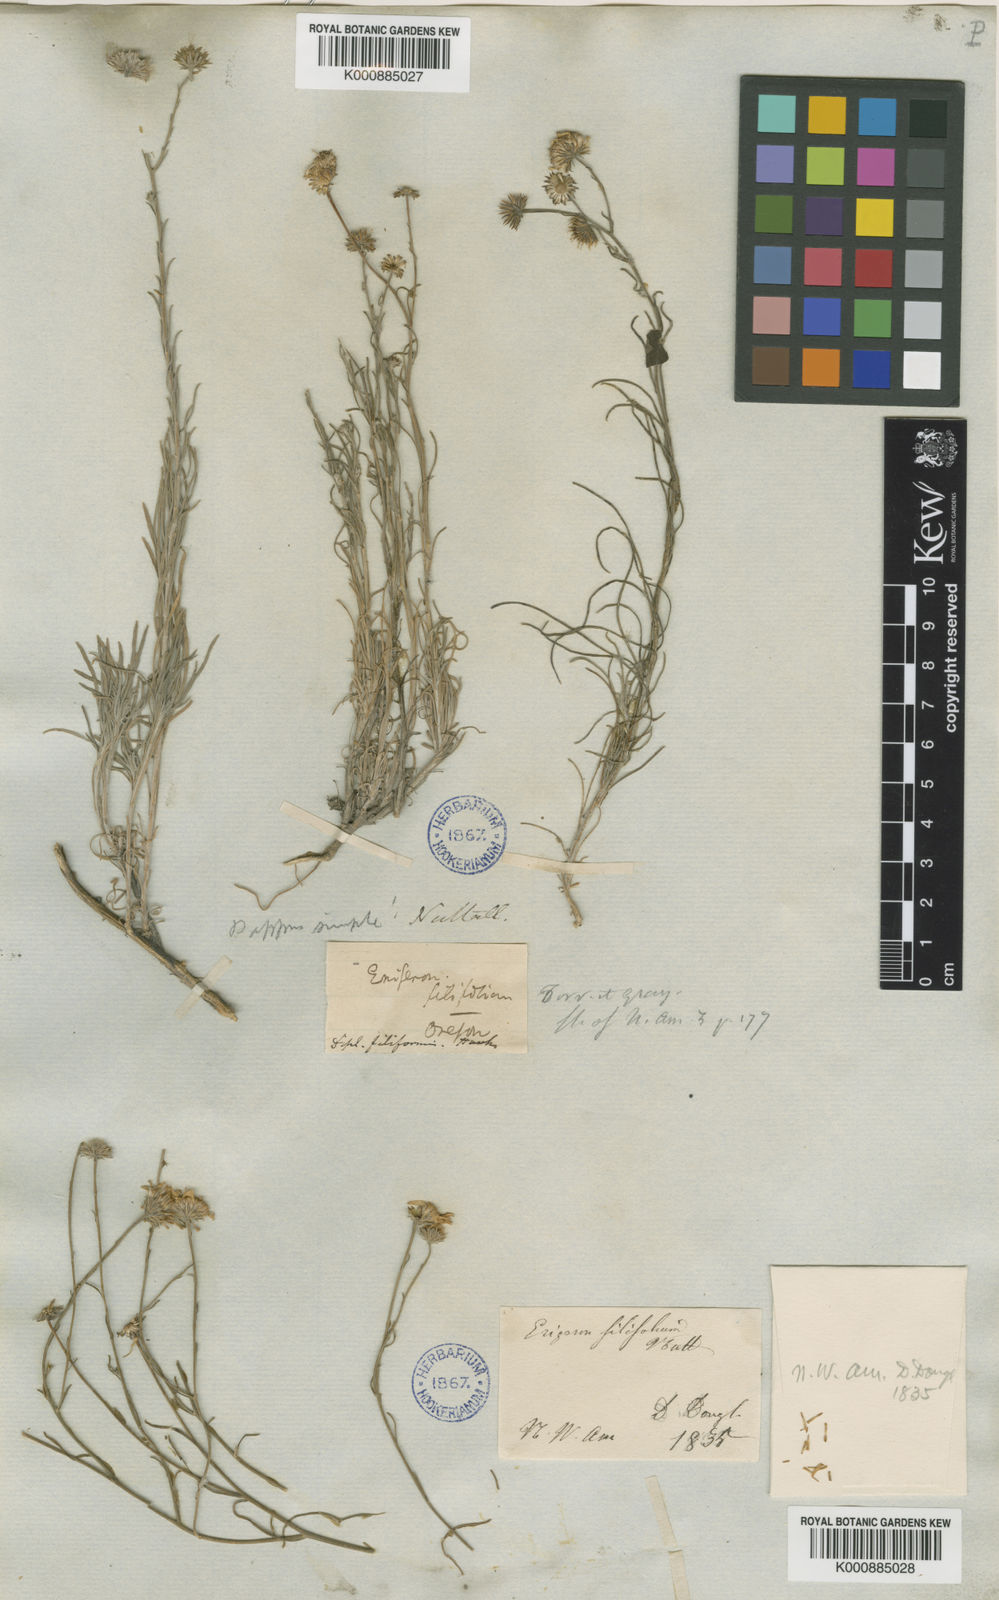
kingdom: Plantae
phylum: Tracheophyta
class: Magnoliopsida
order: Asterales
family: Asteraceae
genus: Erigeron
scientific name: Erigeron filifolius
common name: Threadleaf fleabane
